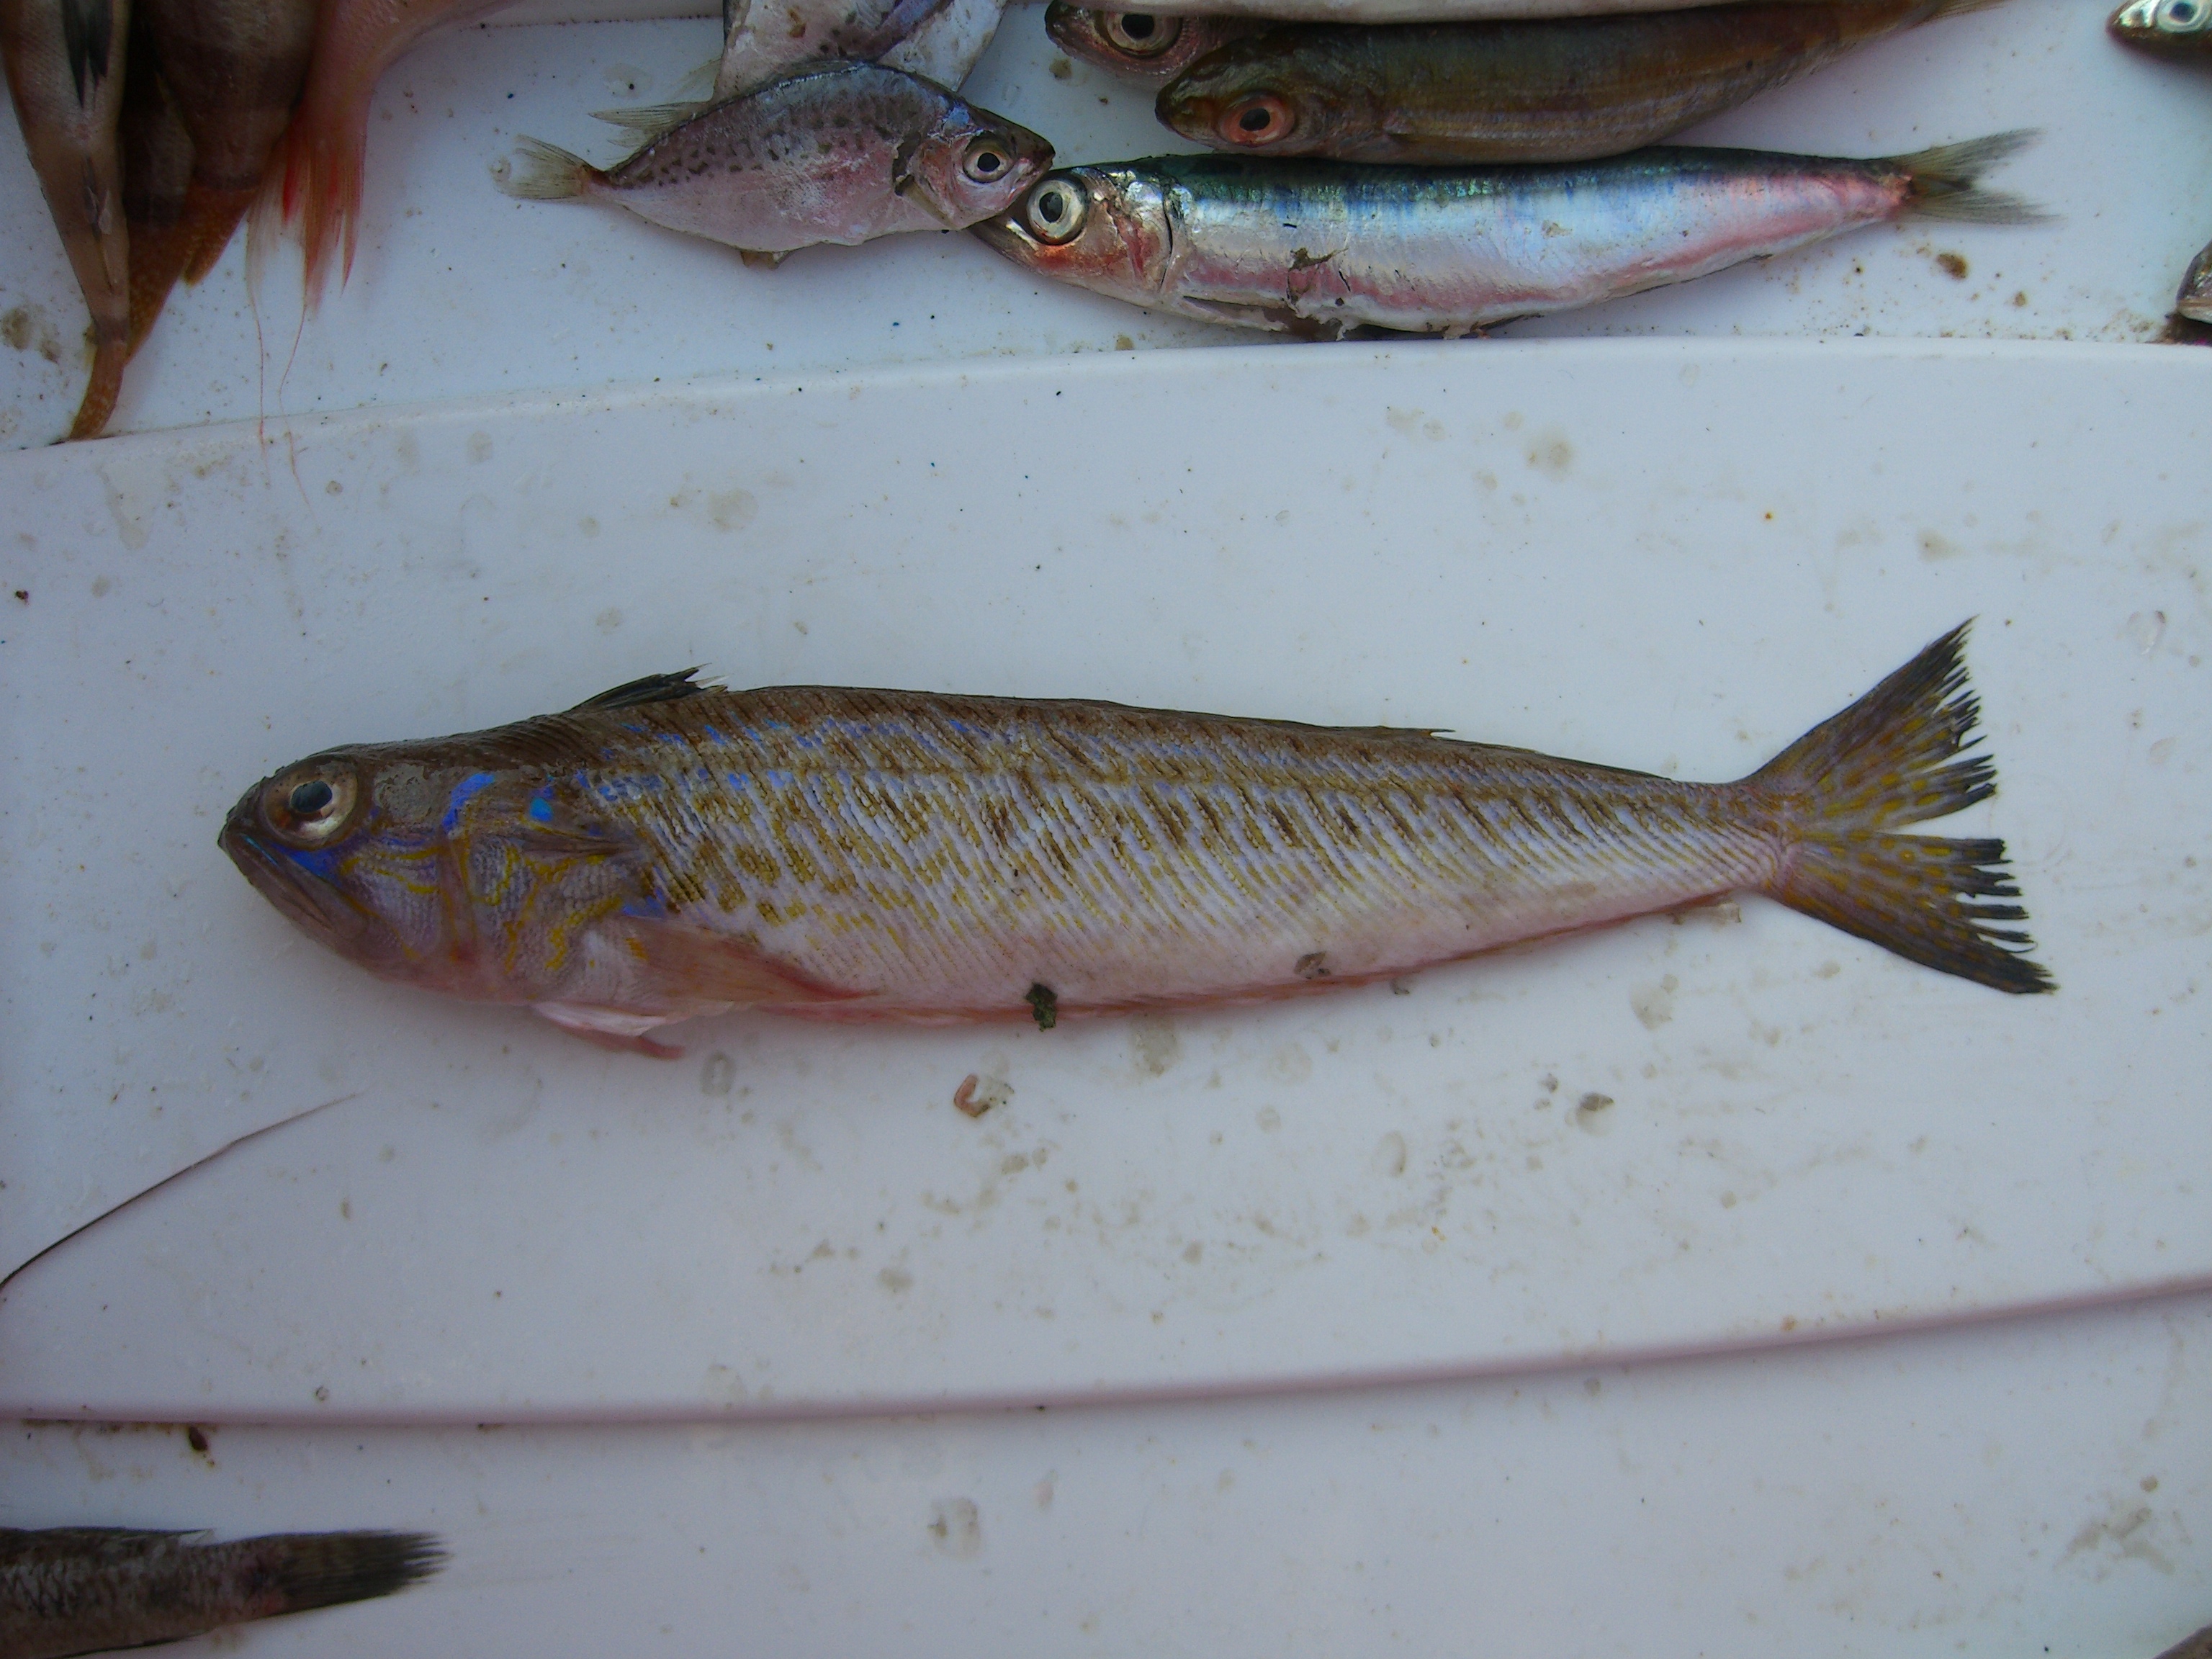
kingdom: Animalia
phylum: Chordata
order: Perciformes
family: Trachinidae
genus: Trachinus
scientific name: Trachinus draco
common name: Greater weever
